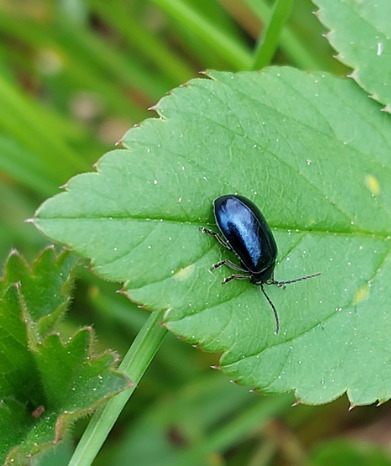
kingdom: Animalia
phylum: Arthropoda
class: Insecta
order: Coleoptera
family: Chrysomelidae
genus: Agelastica
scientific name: Agelastica alni
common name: Ellebladbille
